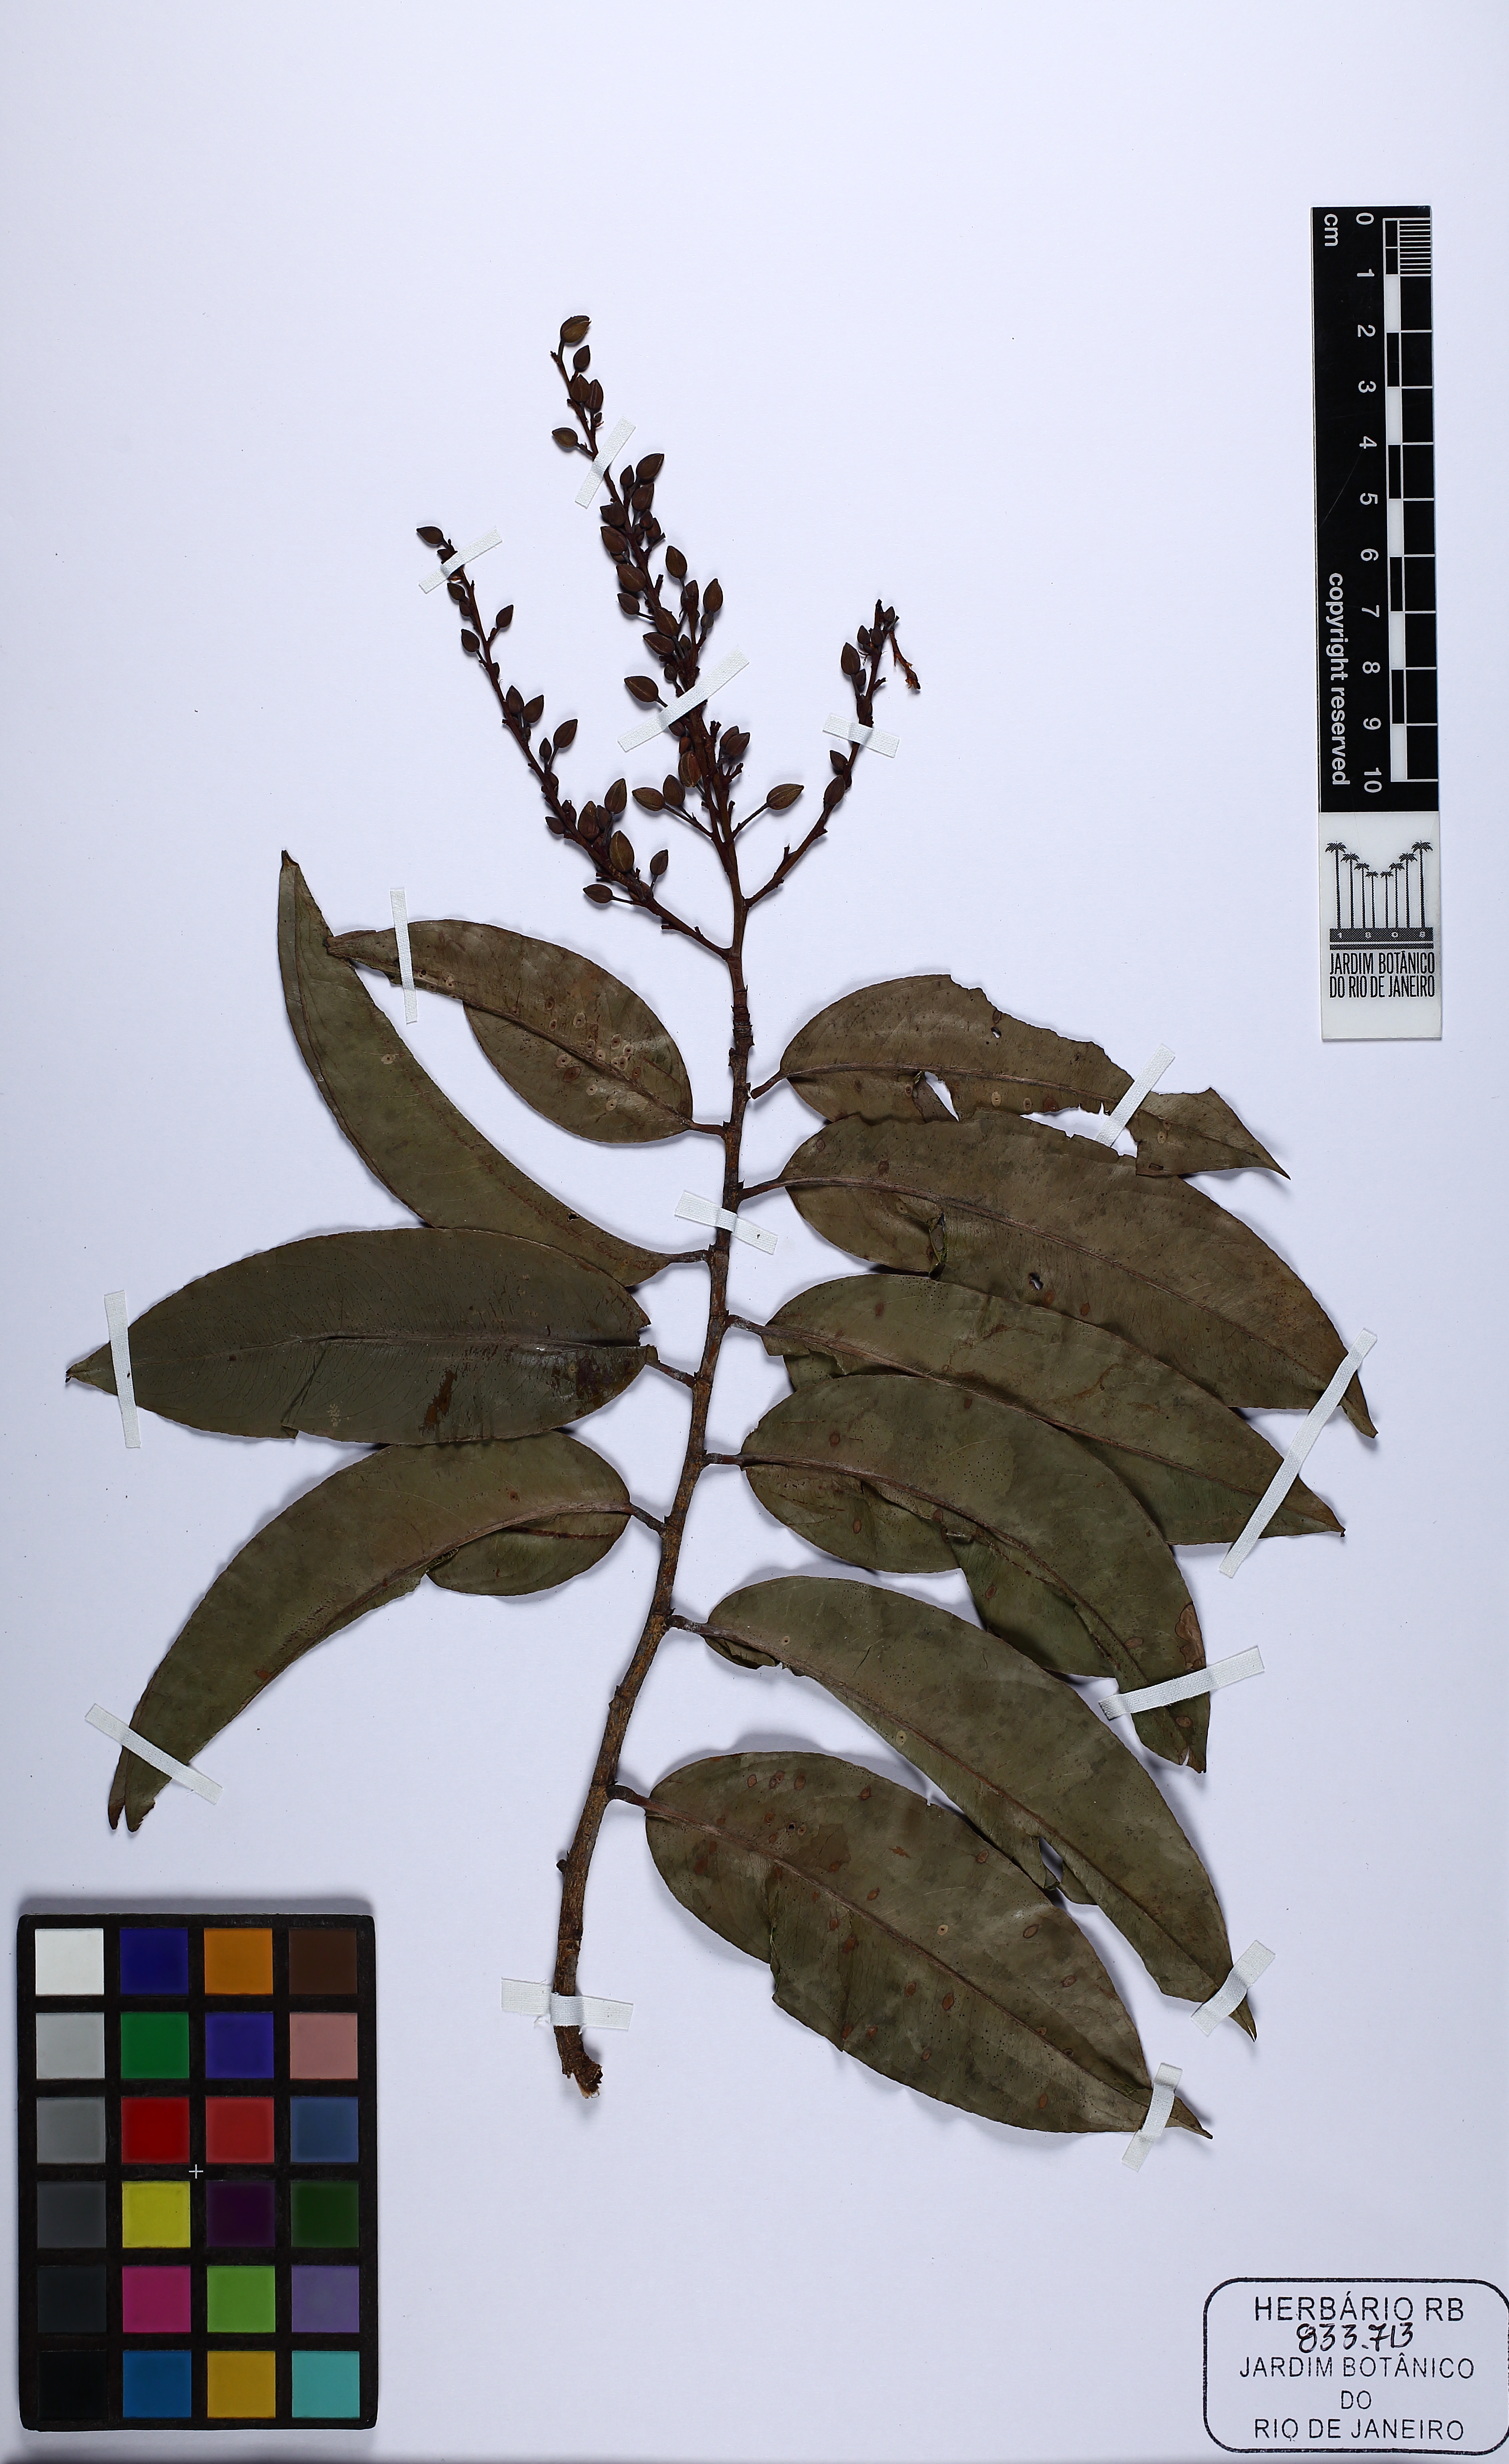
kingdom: Plantae
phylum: Tracheophyta
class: Magnoliopsida
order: Malpighiales
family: Ochnaceae
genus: Ouratea
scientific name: Ouratea hexasperma
